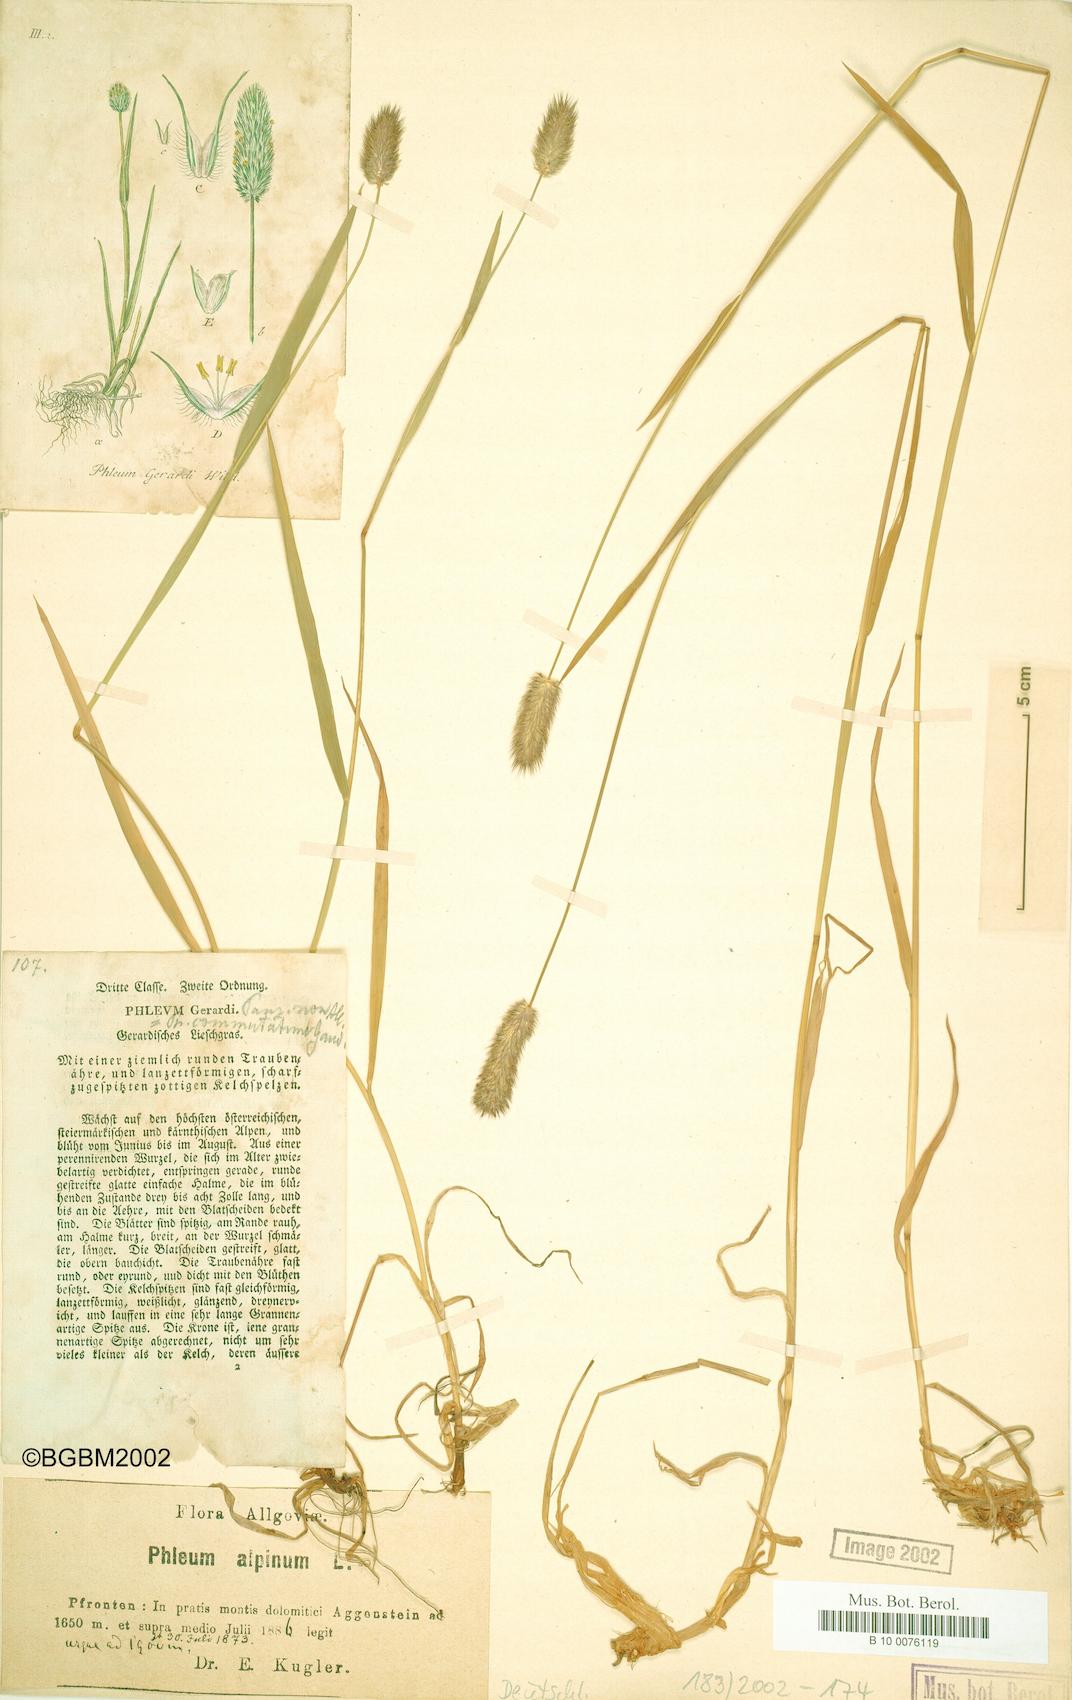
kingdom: Plantae
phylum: Tracheophyta
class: Liliopsida
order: Poales
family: Poaceae
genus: Phleum
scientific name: Phleum alpinum
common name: Alpine cat's-tail
